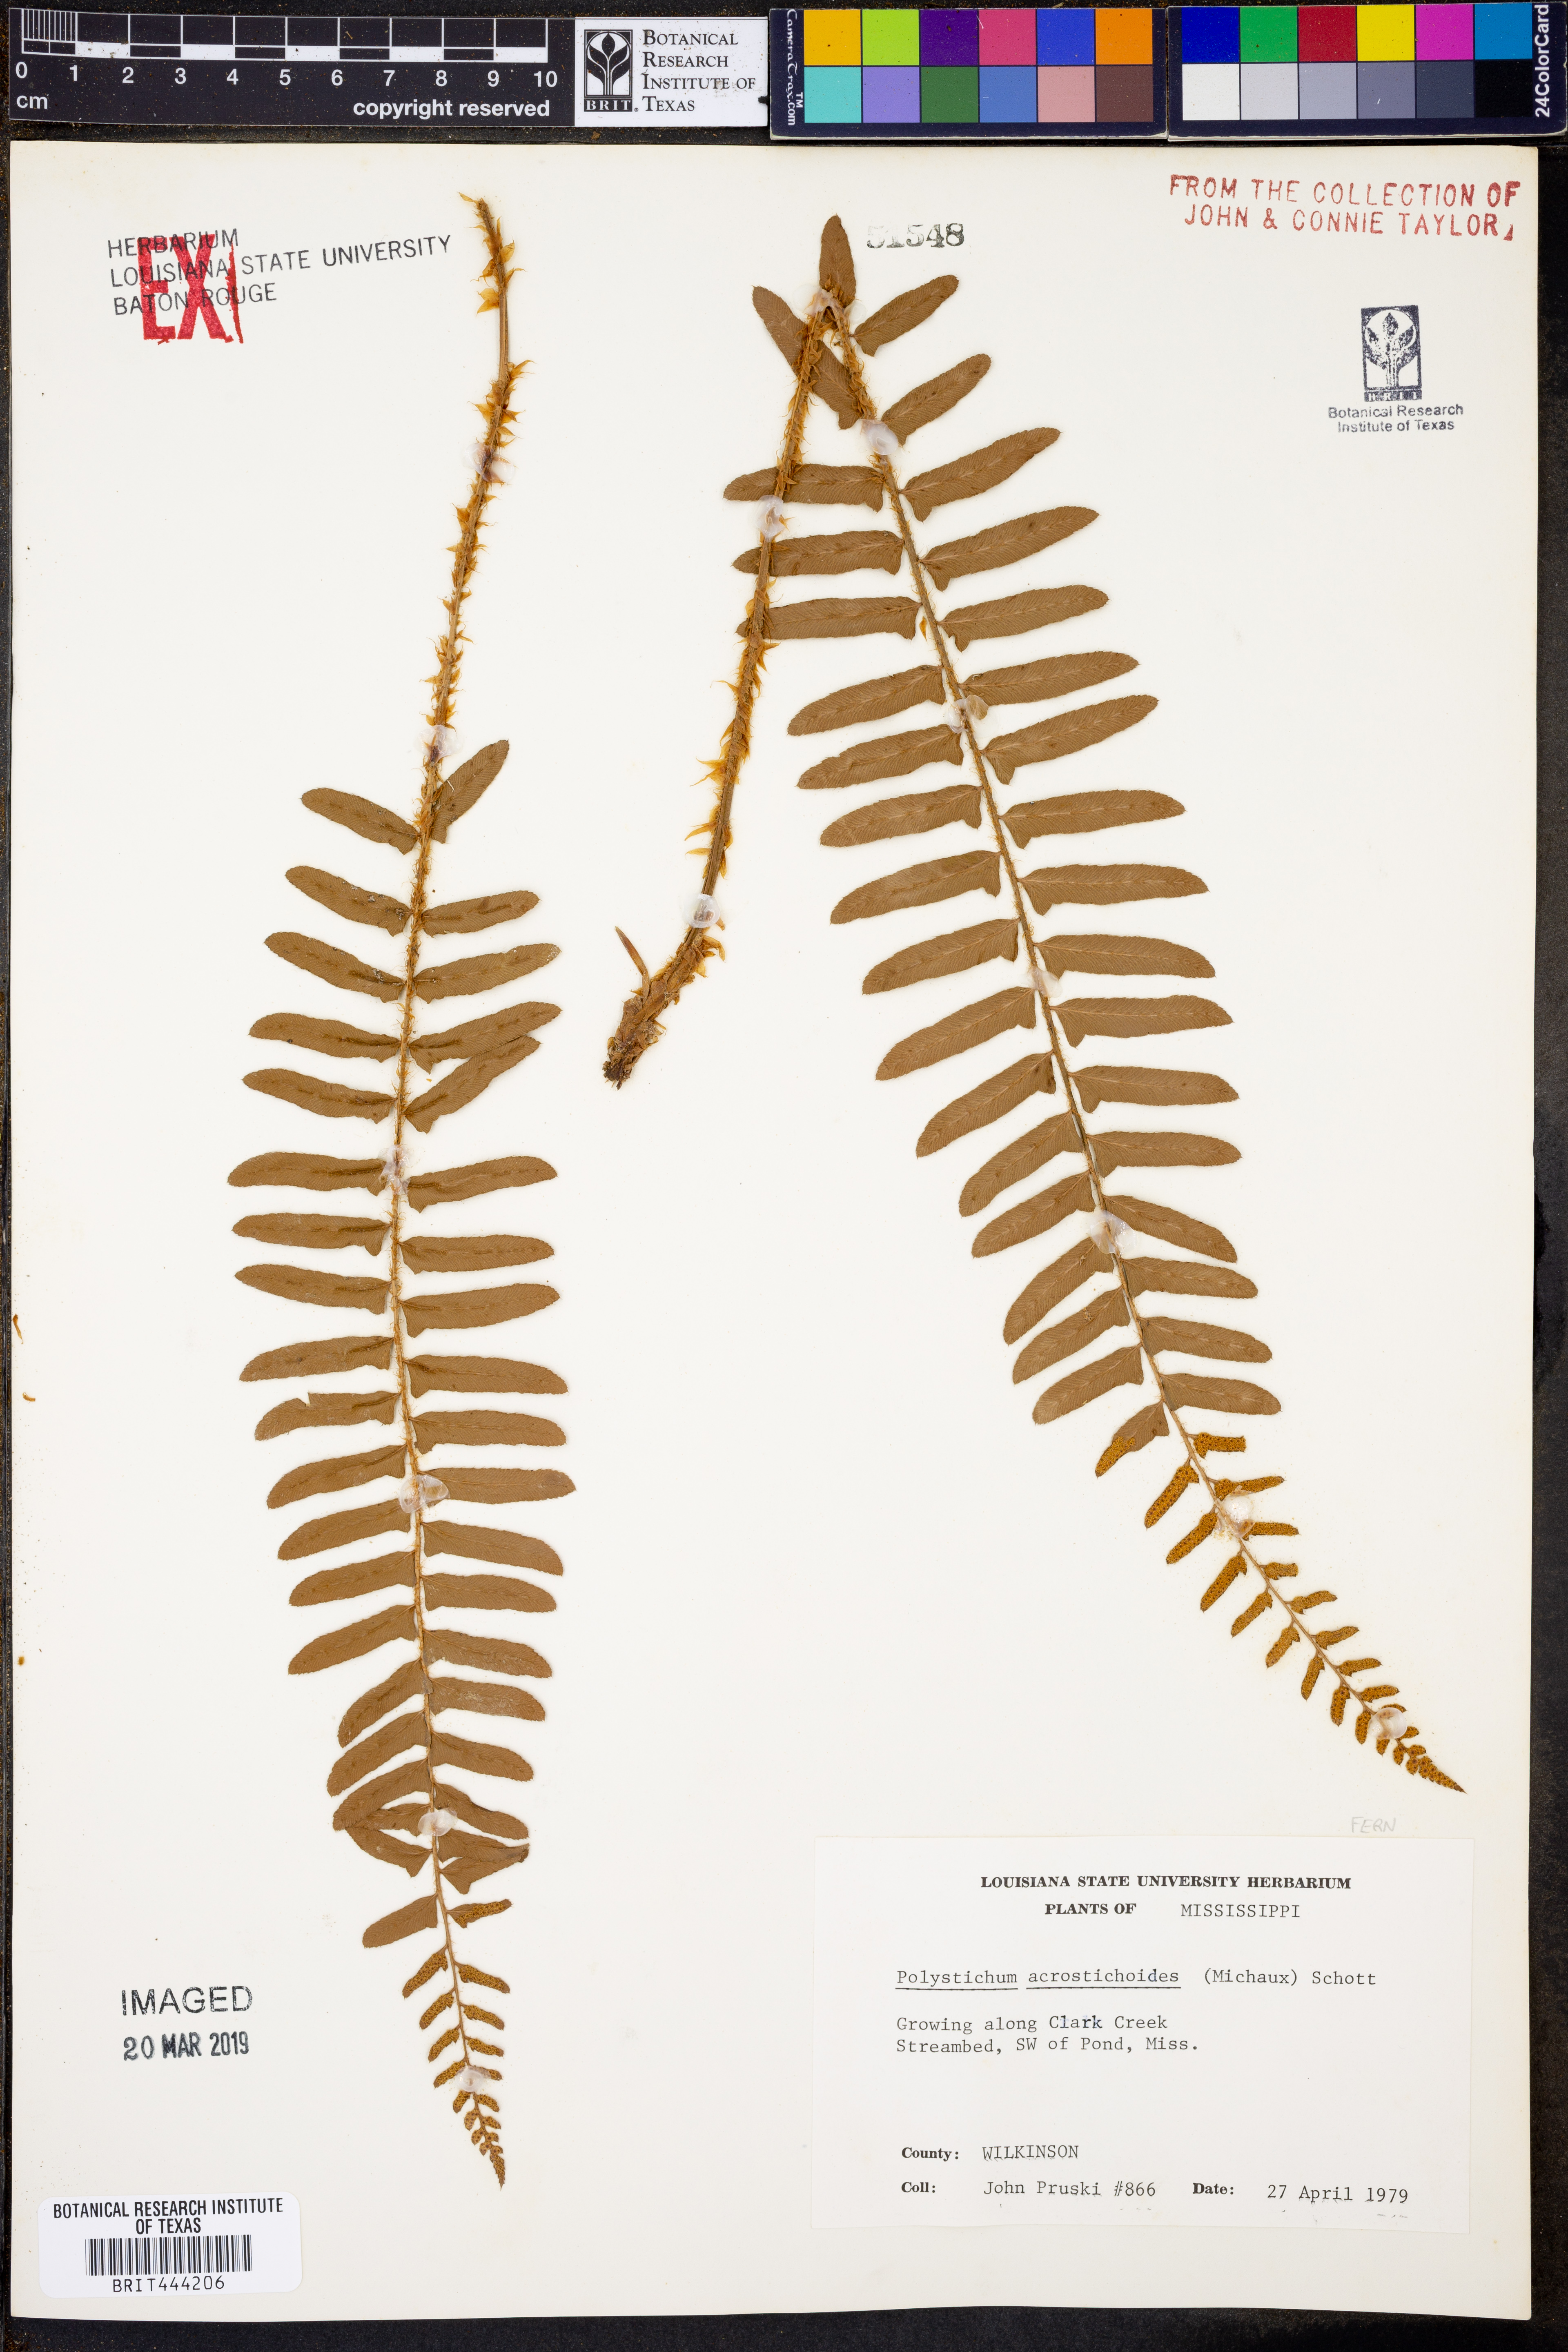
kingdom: Plantae
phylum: Tracheophyta
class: Polypodiopsida
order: Polypodiales
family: Dryopteridaceae
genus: Polystichum
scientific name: Polystichum acrostichoides
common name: Christmas fern
